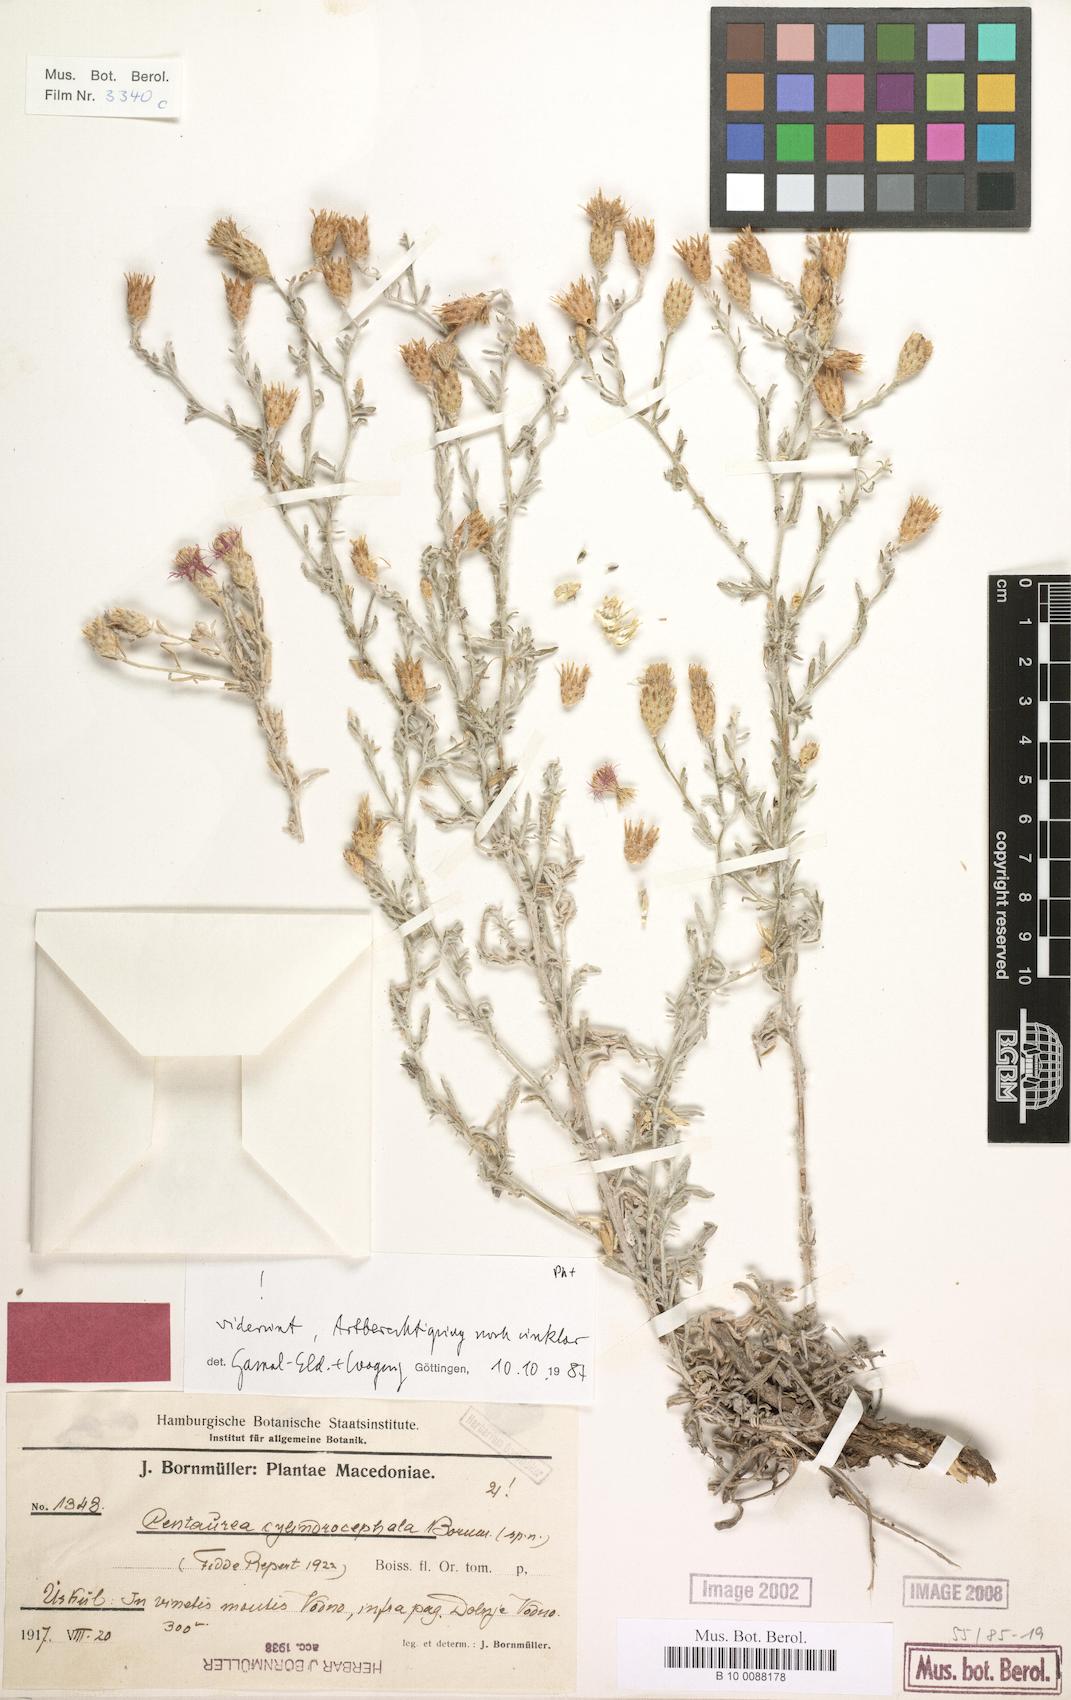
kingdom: Plantae
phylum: Tracheophyta
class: Magnoliopsida
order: Asterales
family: Asteraceae
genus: Centaurea
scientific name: Centaurea cylindrocephala
